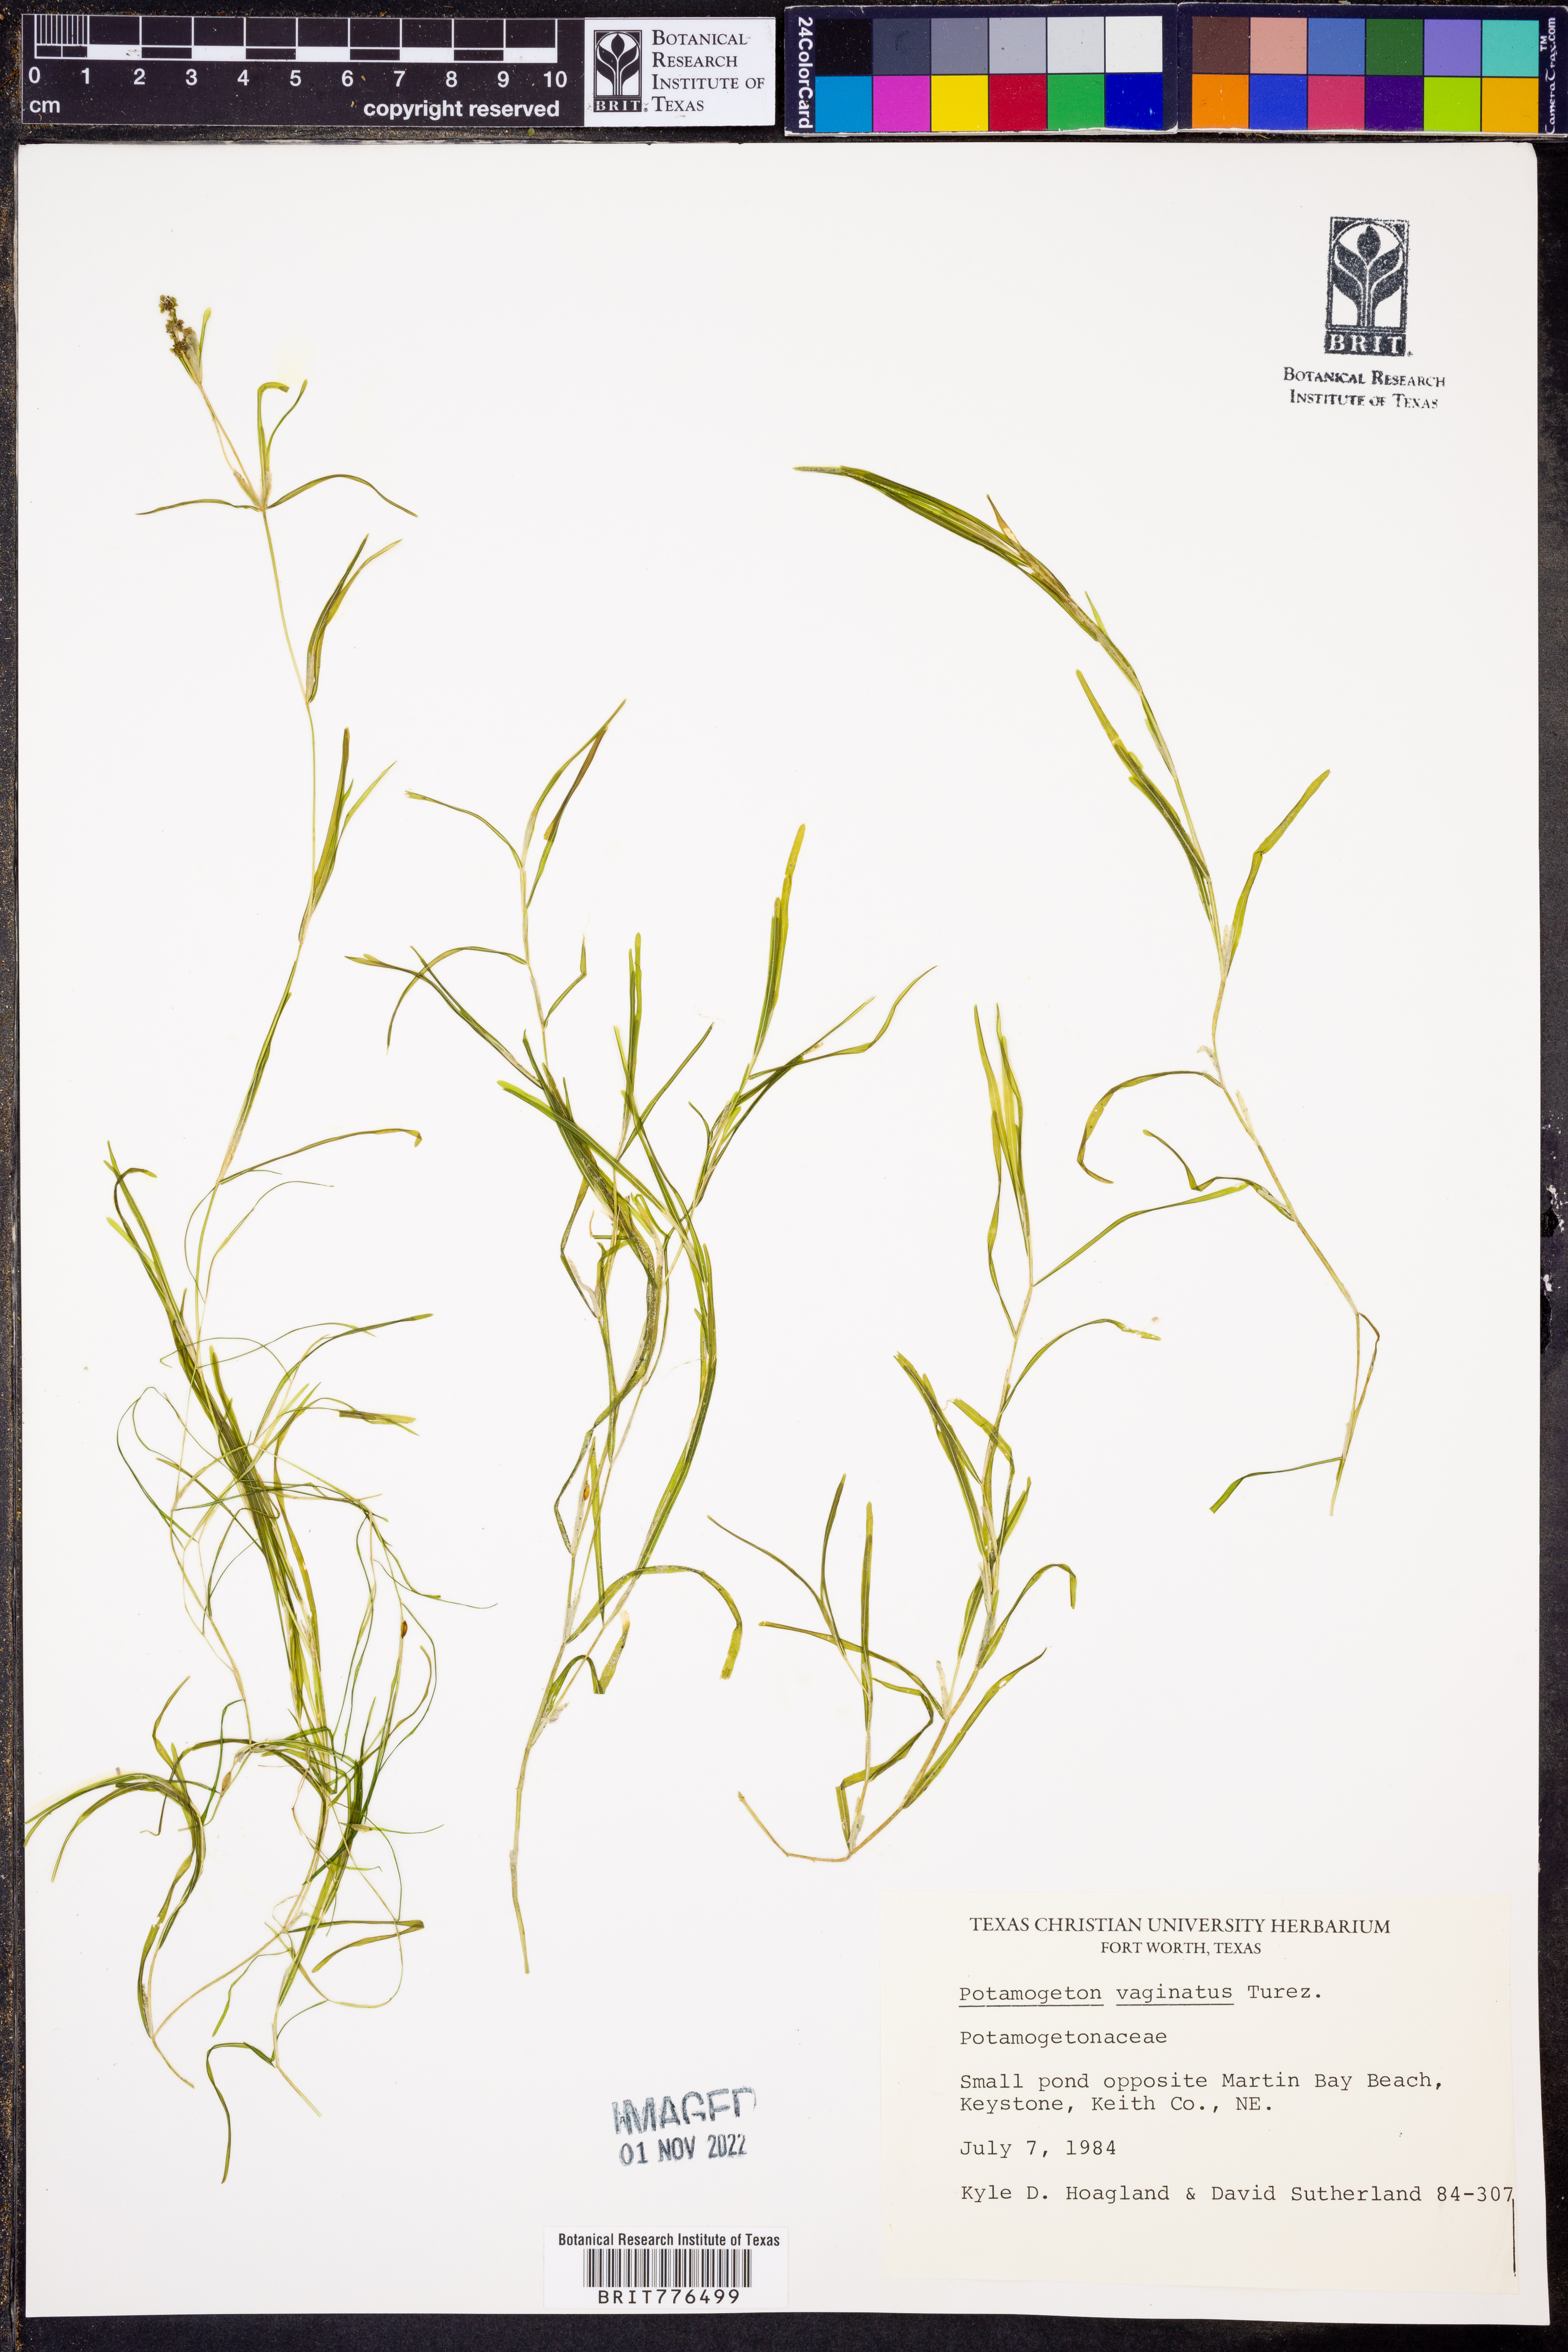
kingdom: Plantae
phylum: Tracheophyta
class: Liliopsida
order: Alismatales
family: Potamogetonaceae
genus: Stuckenia
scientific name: Stuckenia vaginata
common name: Big-sheathed pondweed
